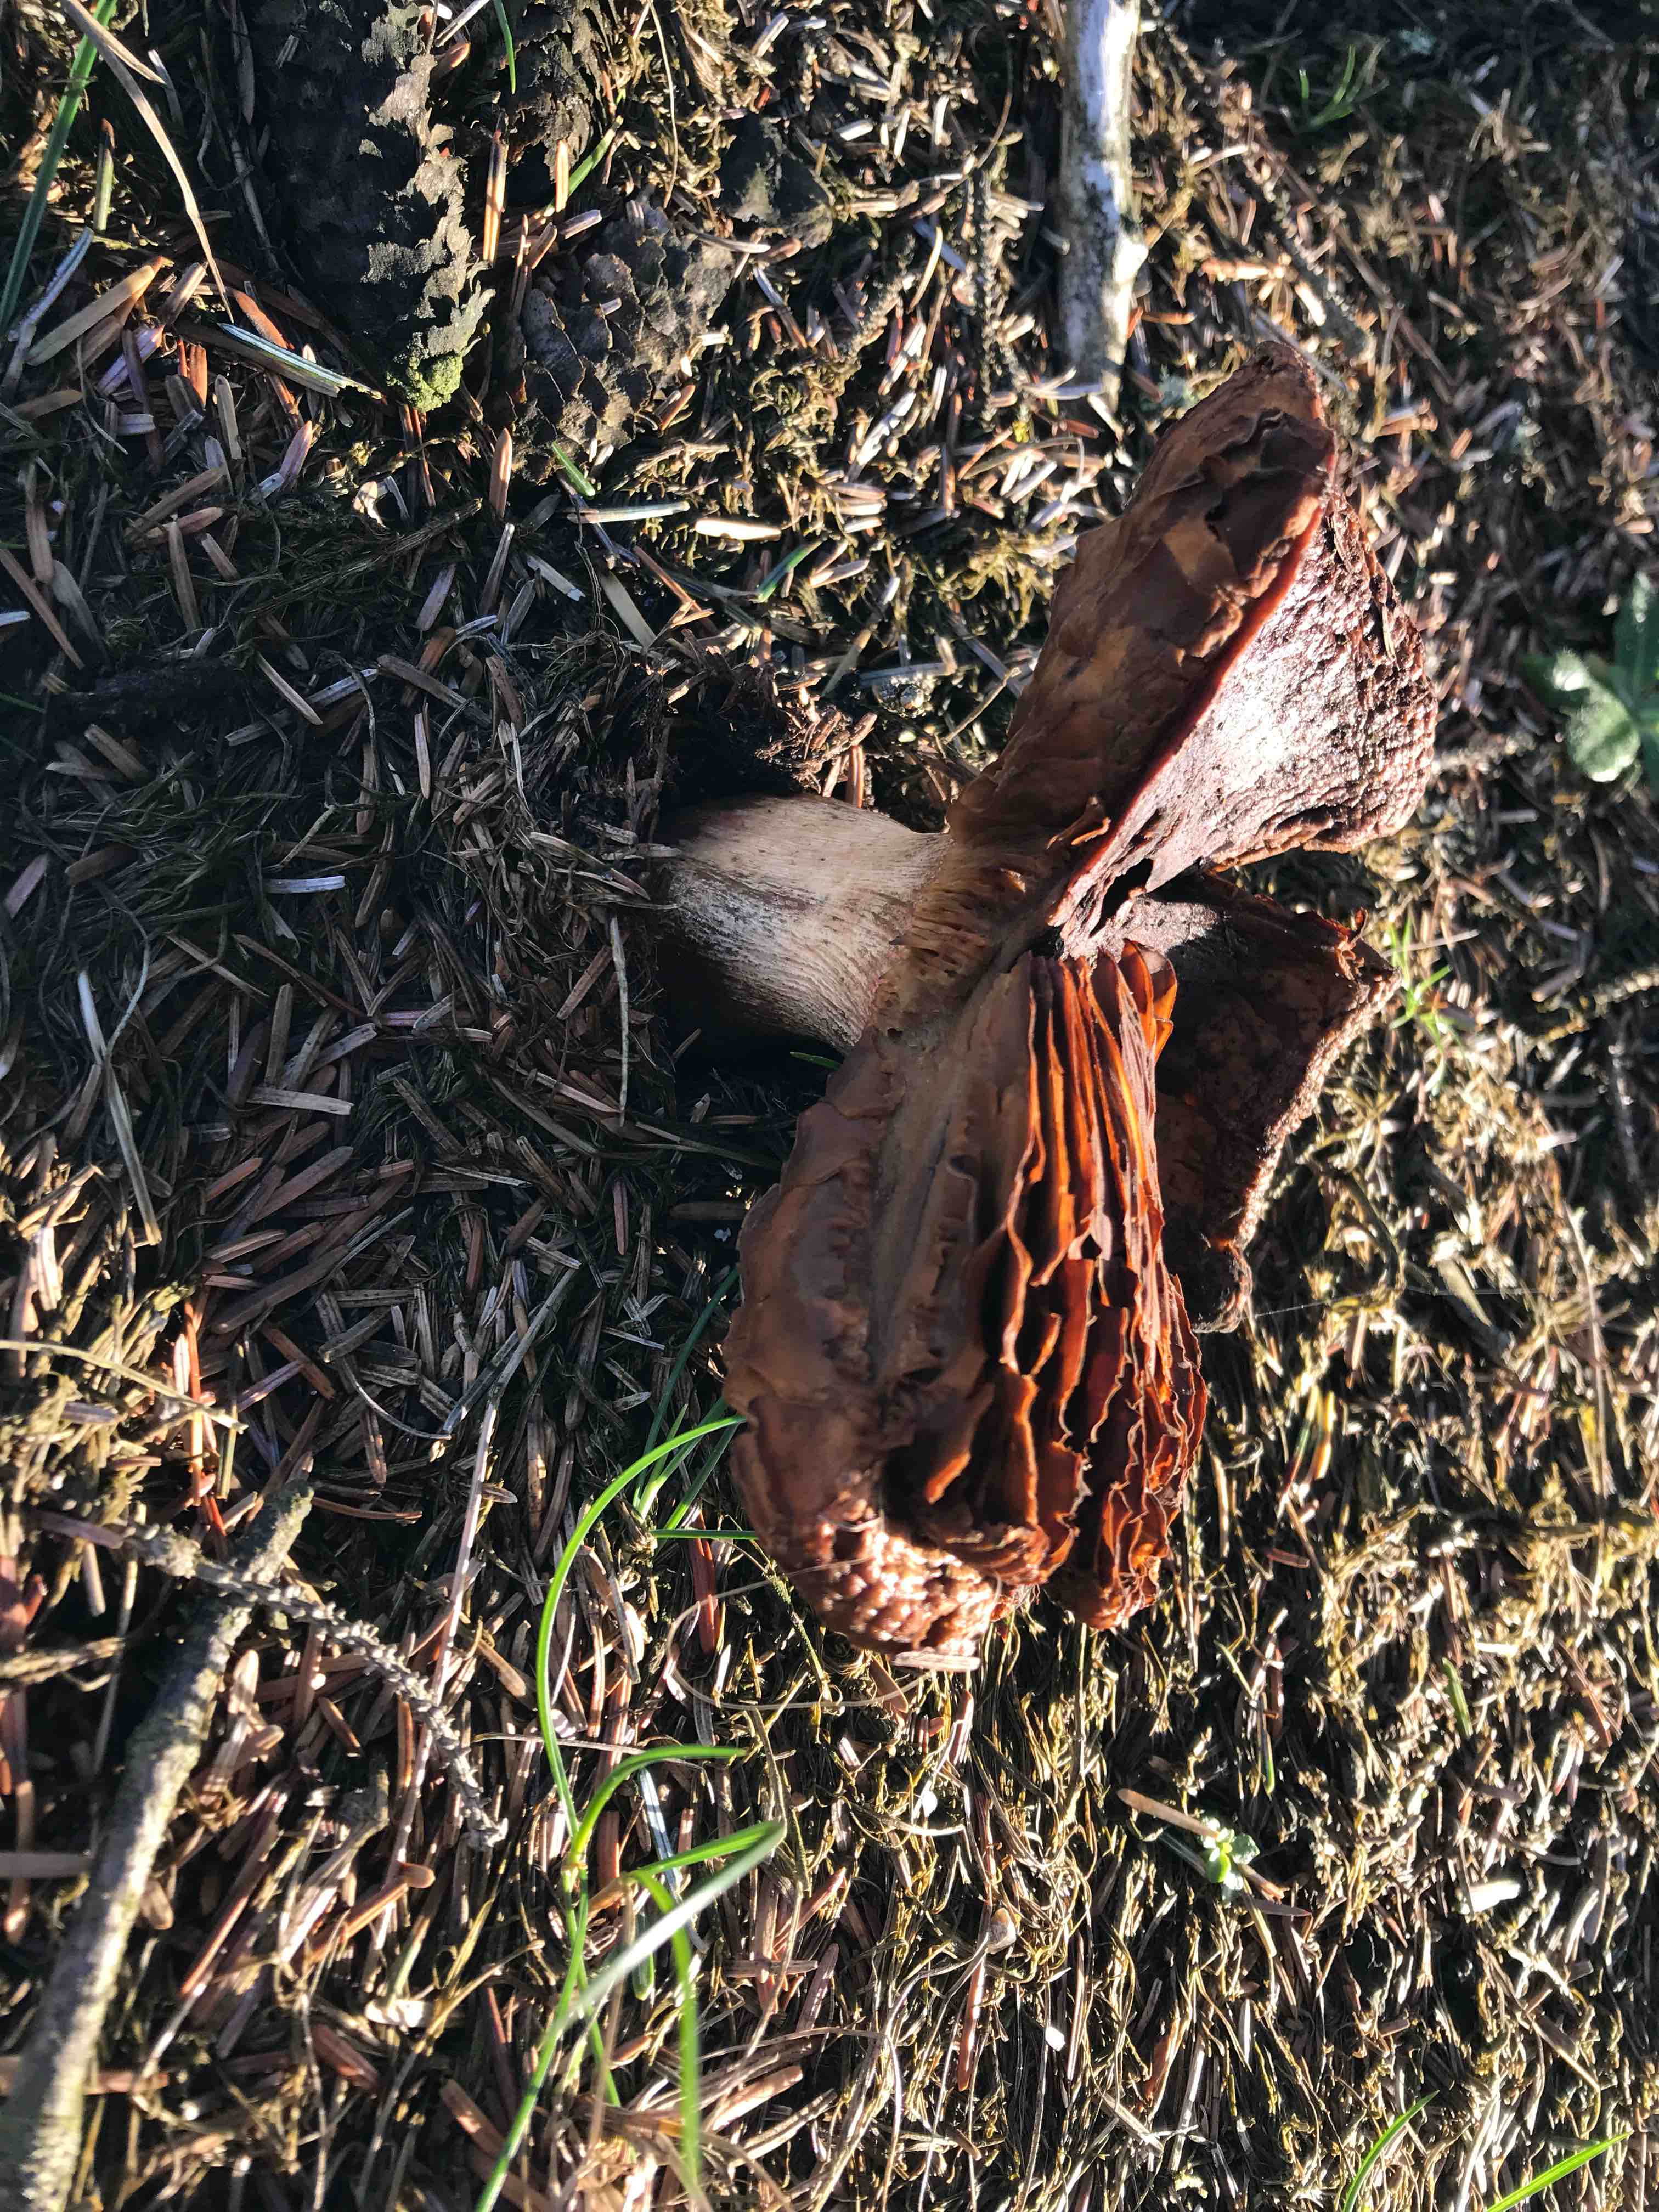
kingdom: Fungi
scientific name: Fungi
